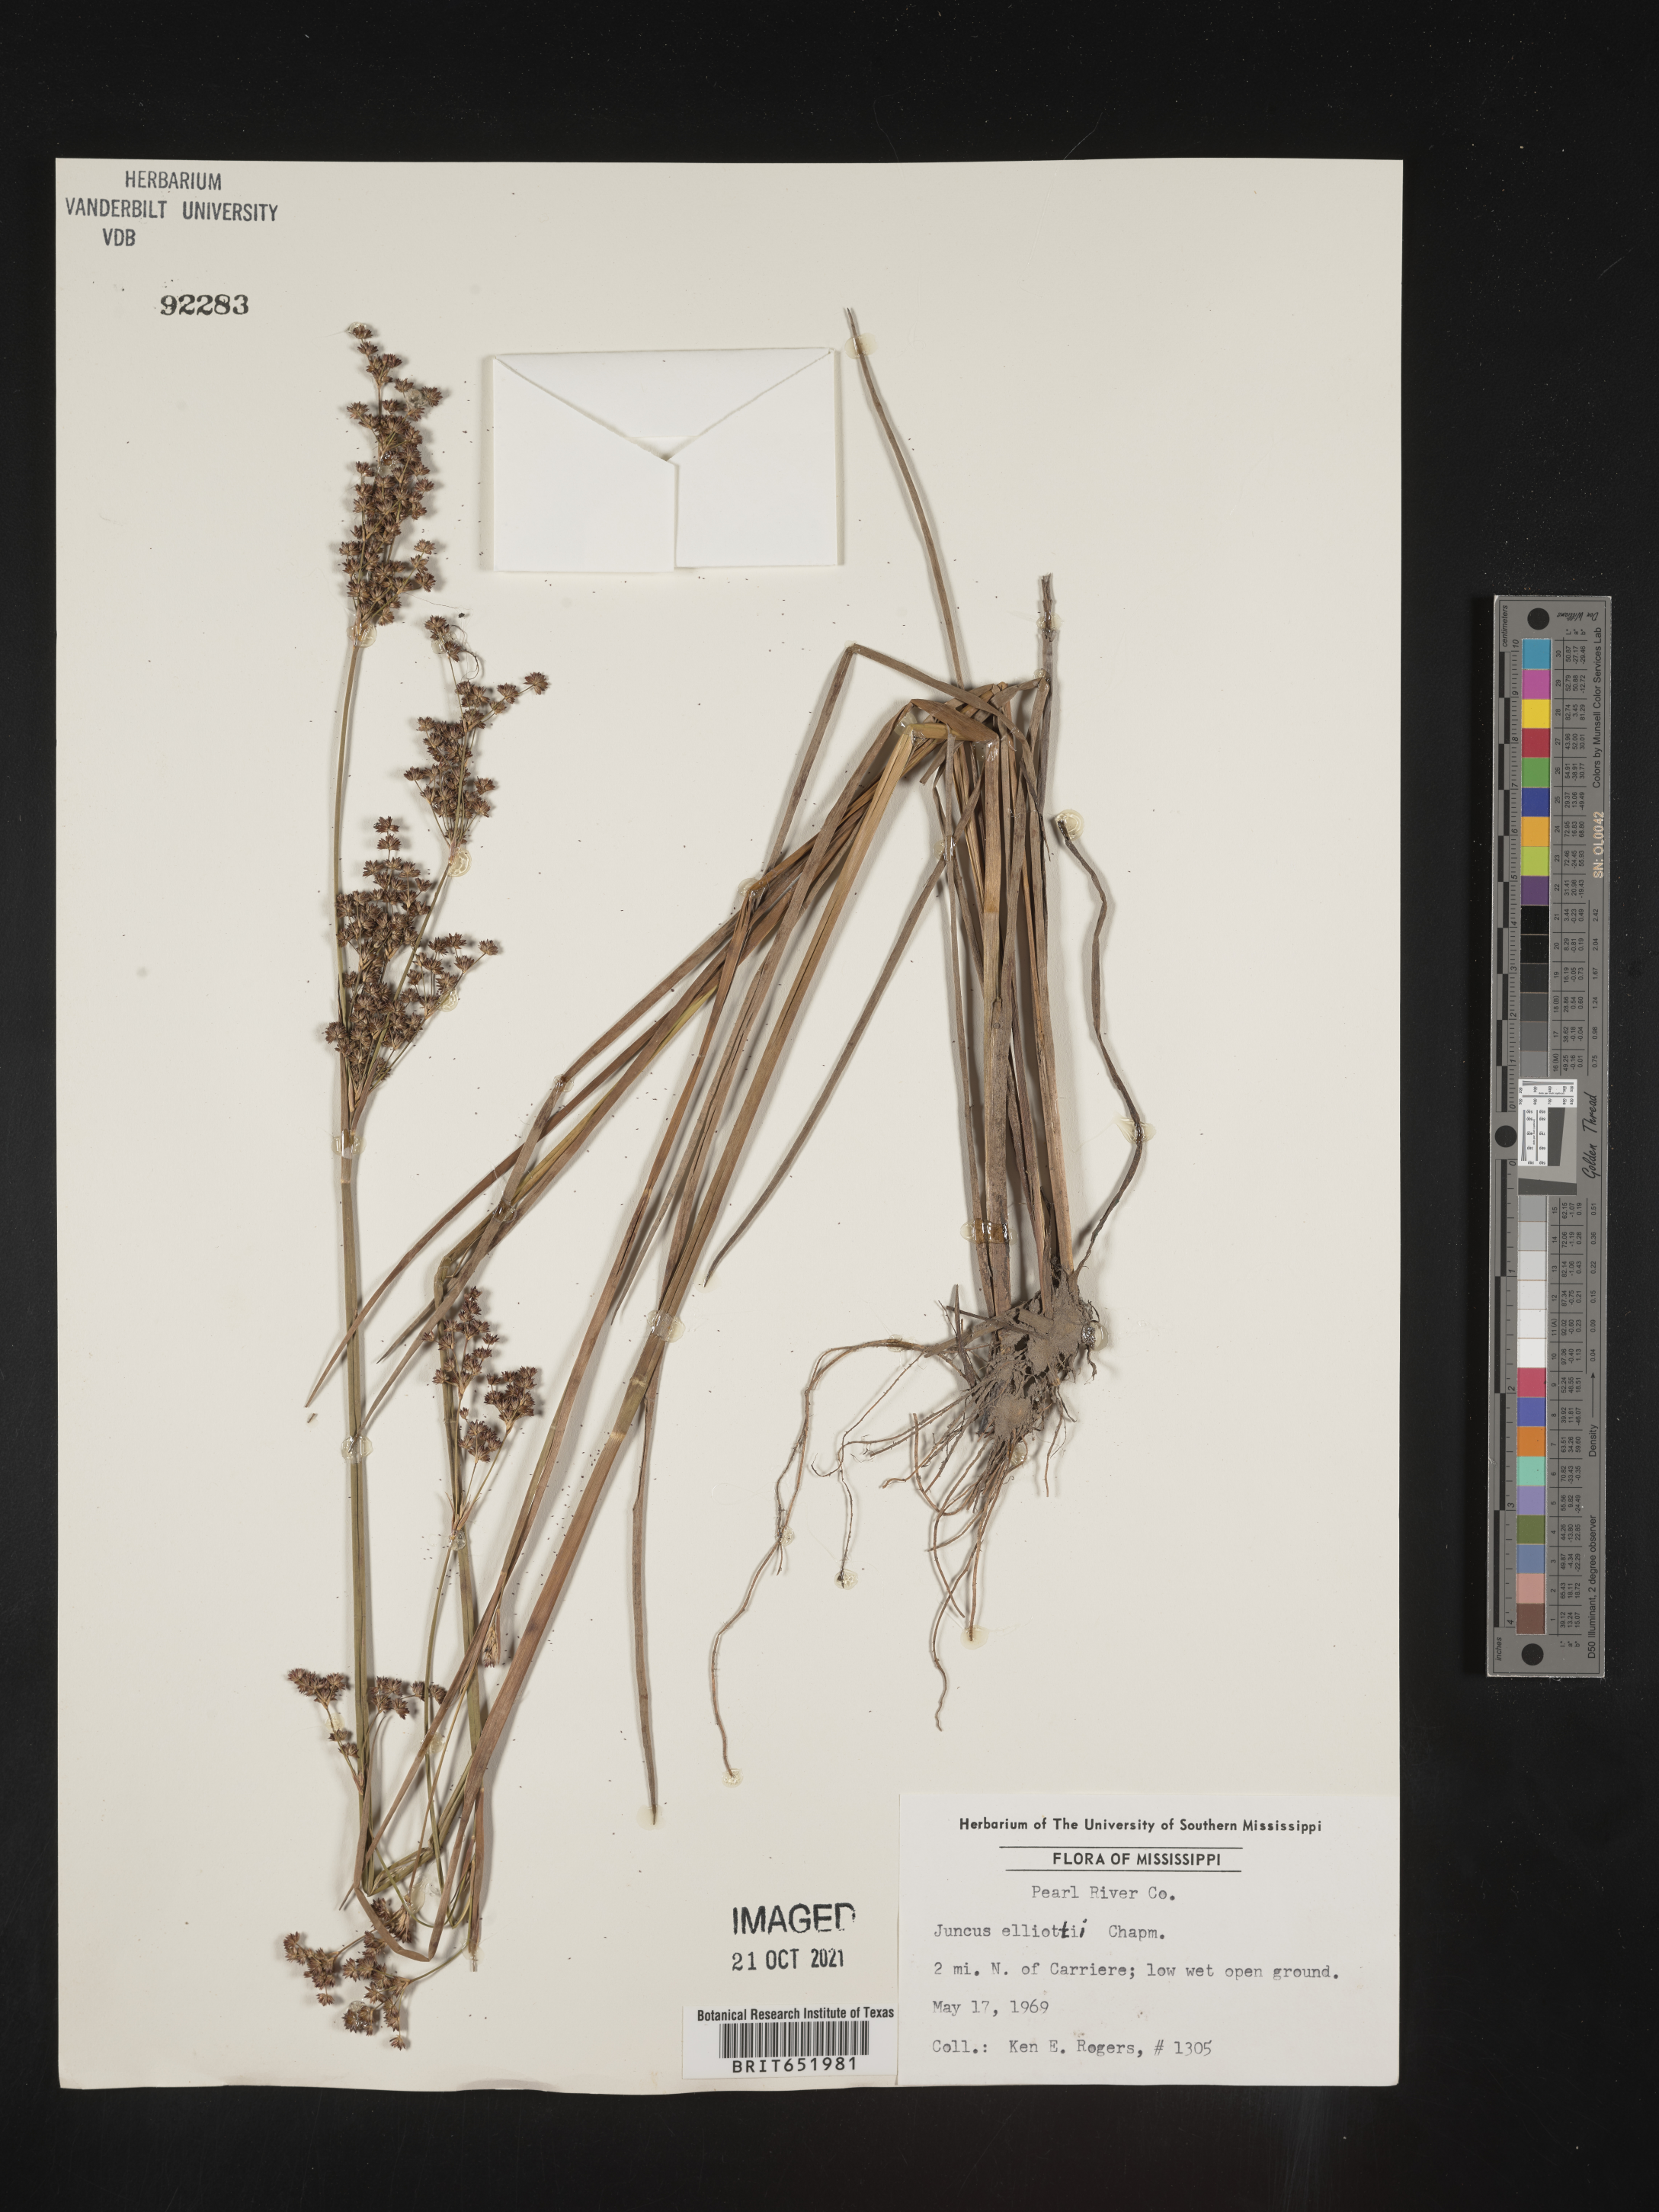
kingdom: Plantae
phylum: Tracheophyta
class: Liliopsida
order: Poales
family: Juncaceae
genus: Juncus
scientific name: Juncus elliottii
